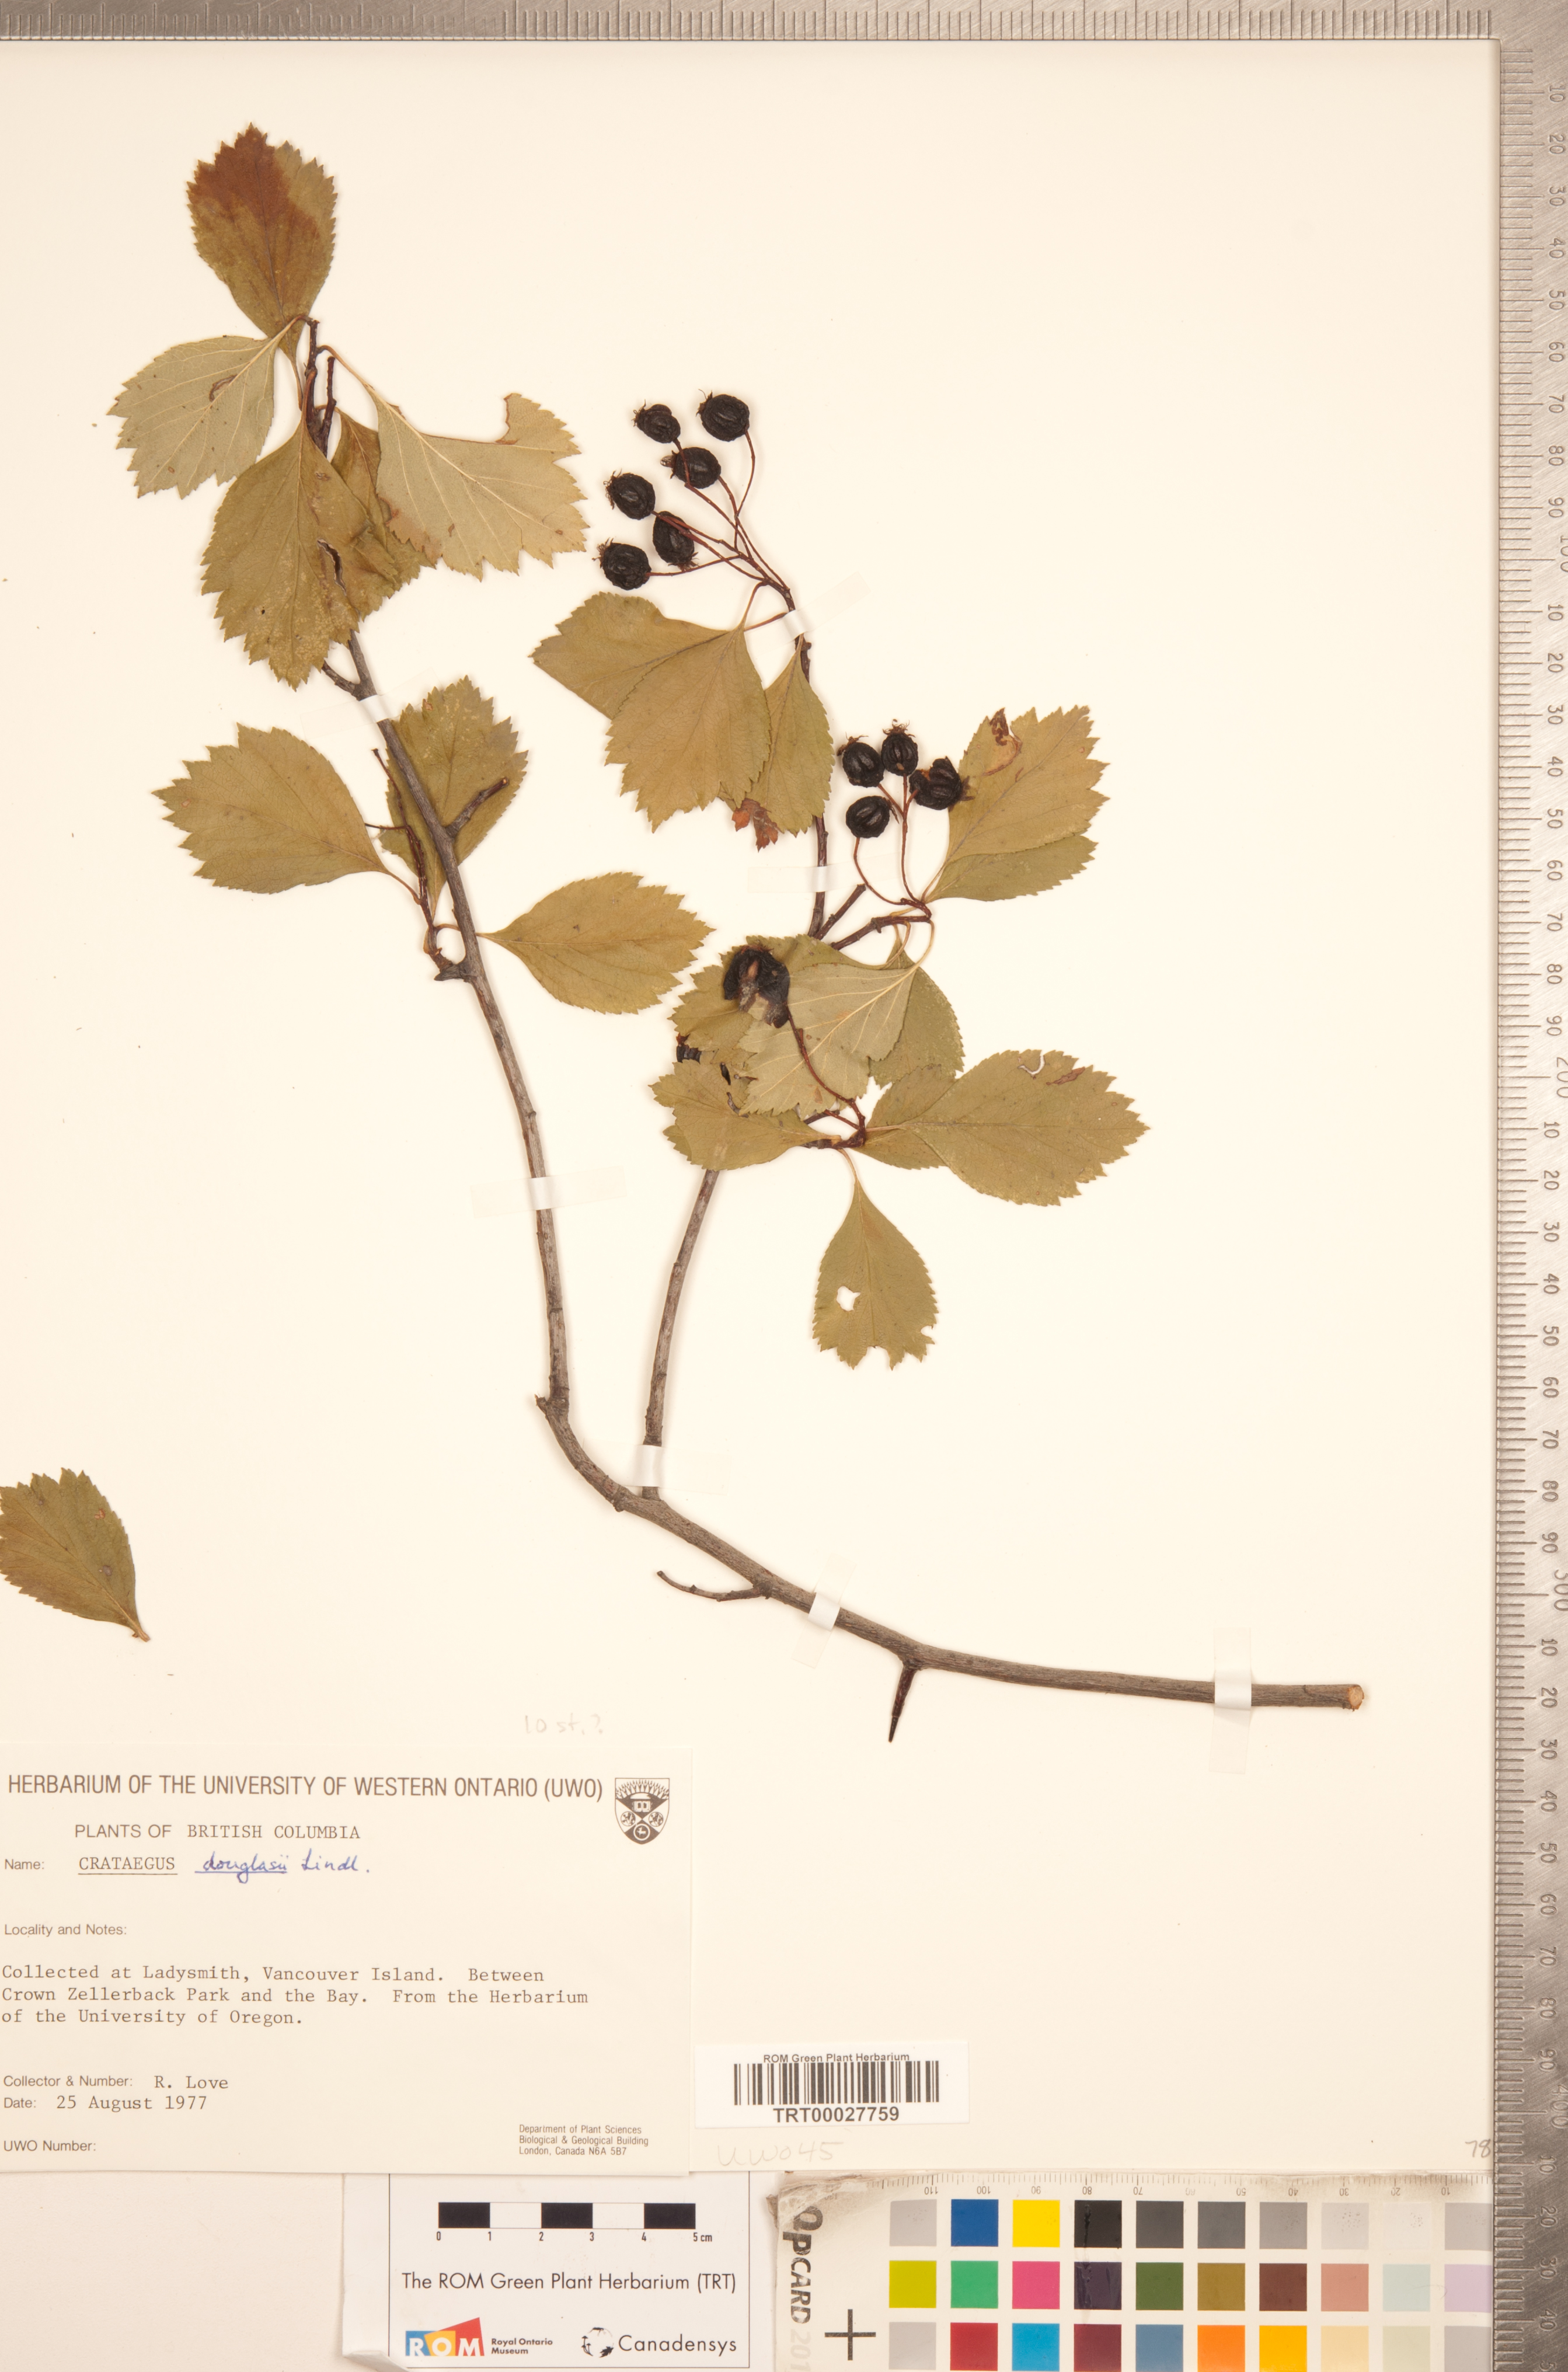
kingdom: Plantae
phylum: Tracheophyta
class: Magnoliopsida
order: Rosales
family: Rosaceae
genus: Crataegus
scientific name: Crataegus douglasii
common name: Black hawthorn
